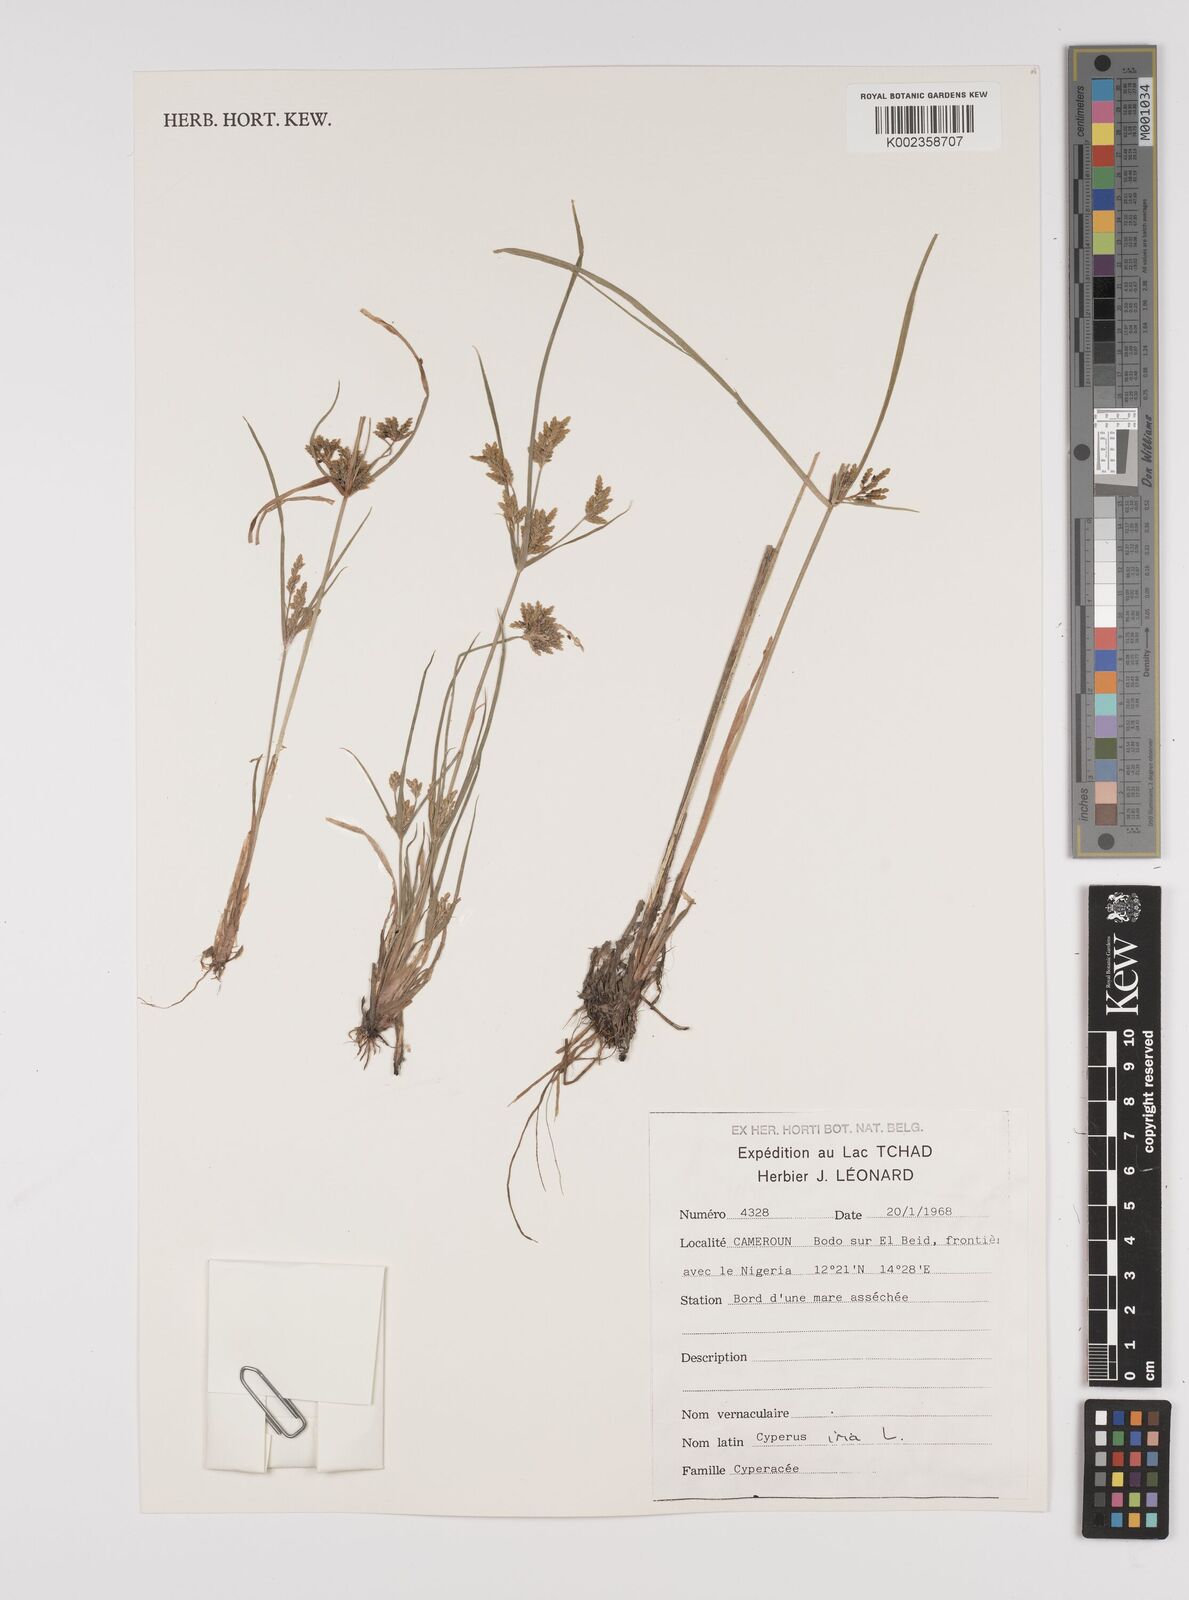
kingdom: Plantae
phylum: Tracheophyta
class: Liliopsida
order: Poales
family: Cyperaceae
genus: Cyperus
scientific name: Cyperus iria
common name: Ricefield flatsedge
